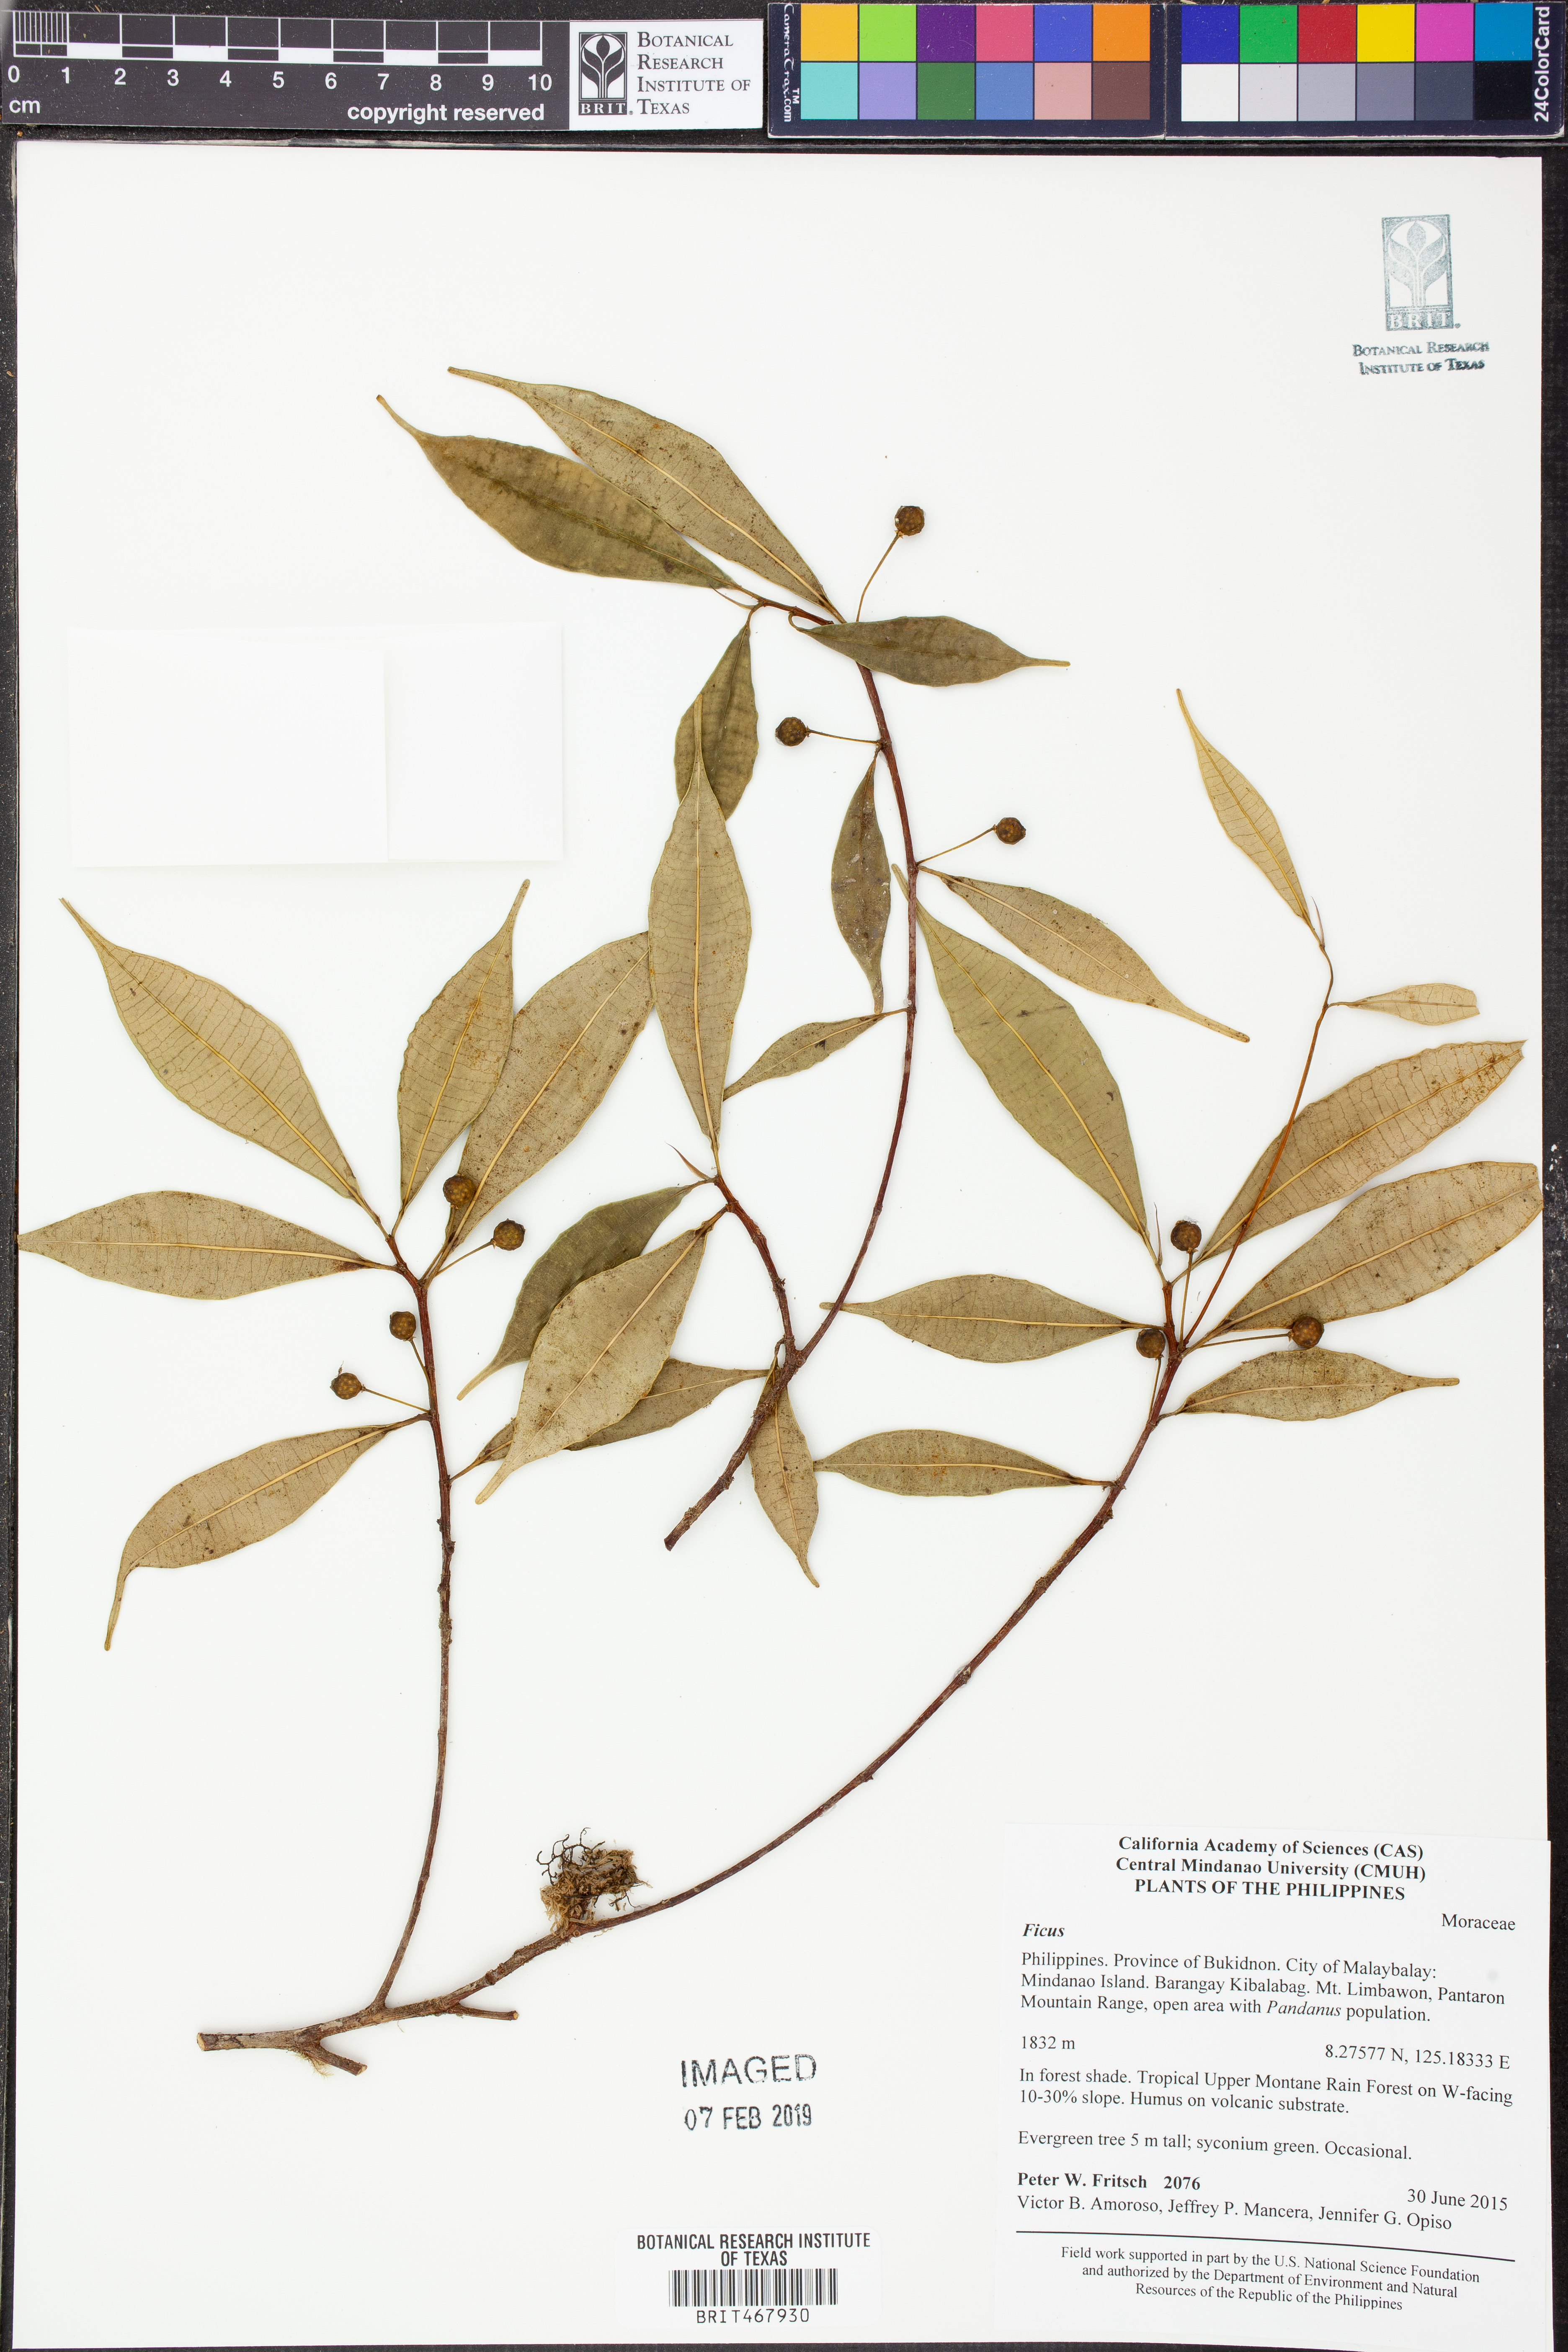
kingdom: Plantae
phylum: Tracheophyta
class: Magnoliopsida
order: Rosales
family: Moraceae
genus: Ficus
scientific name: Ficus
